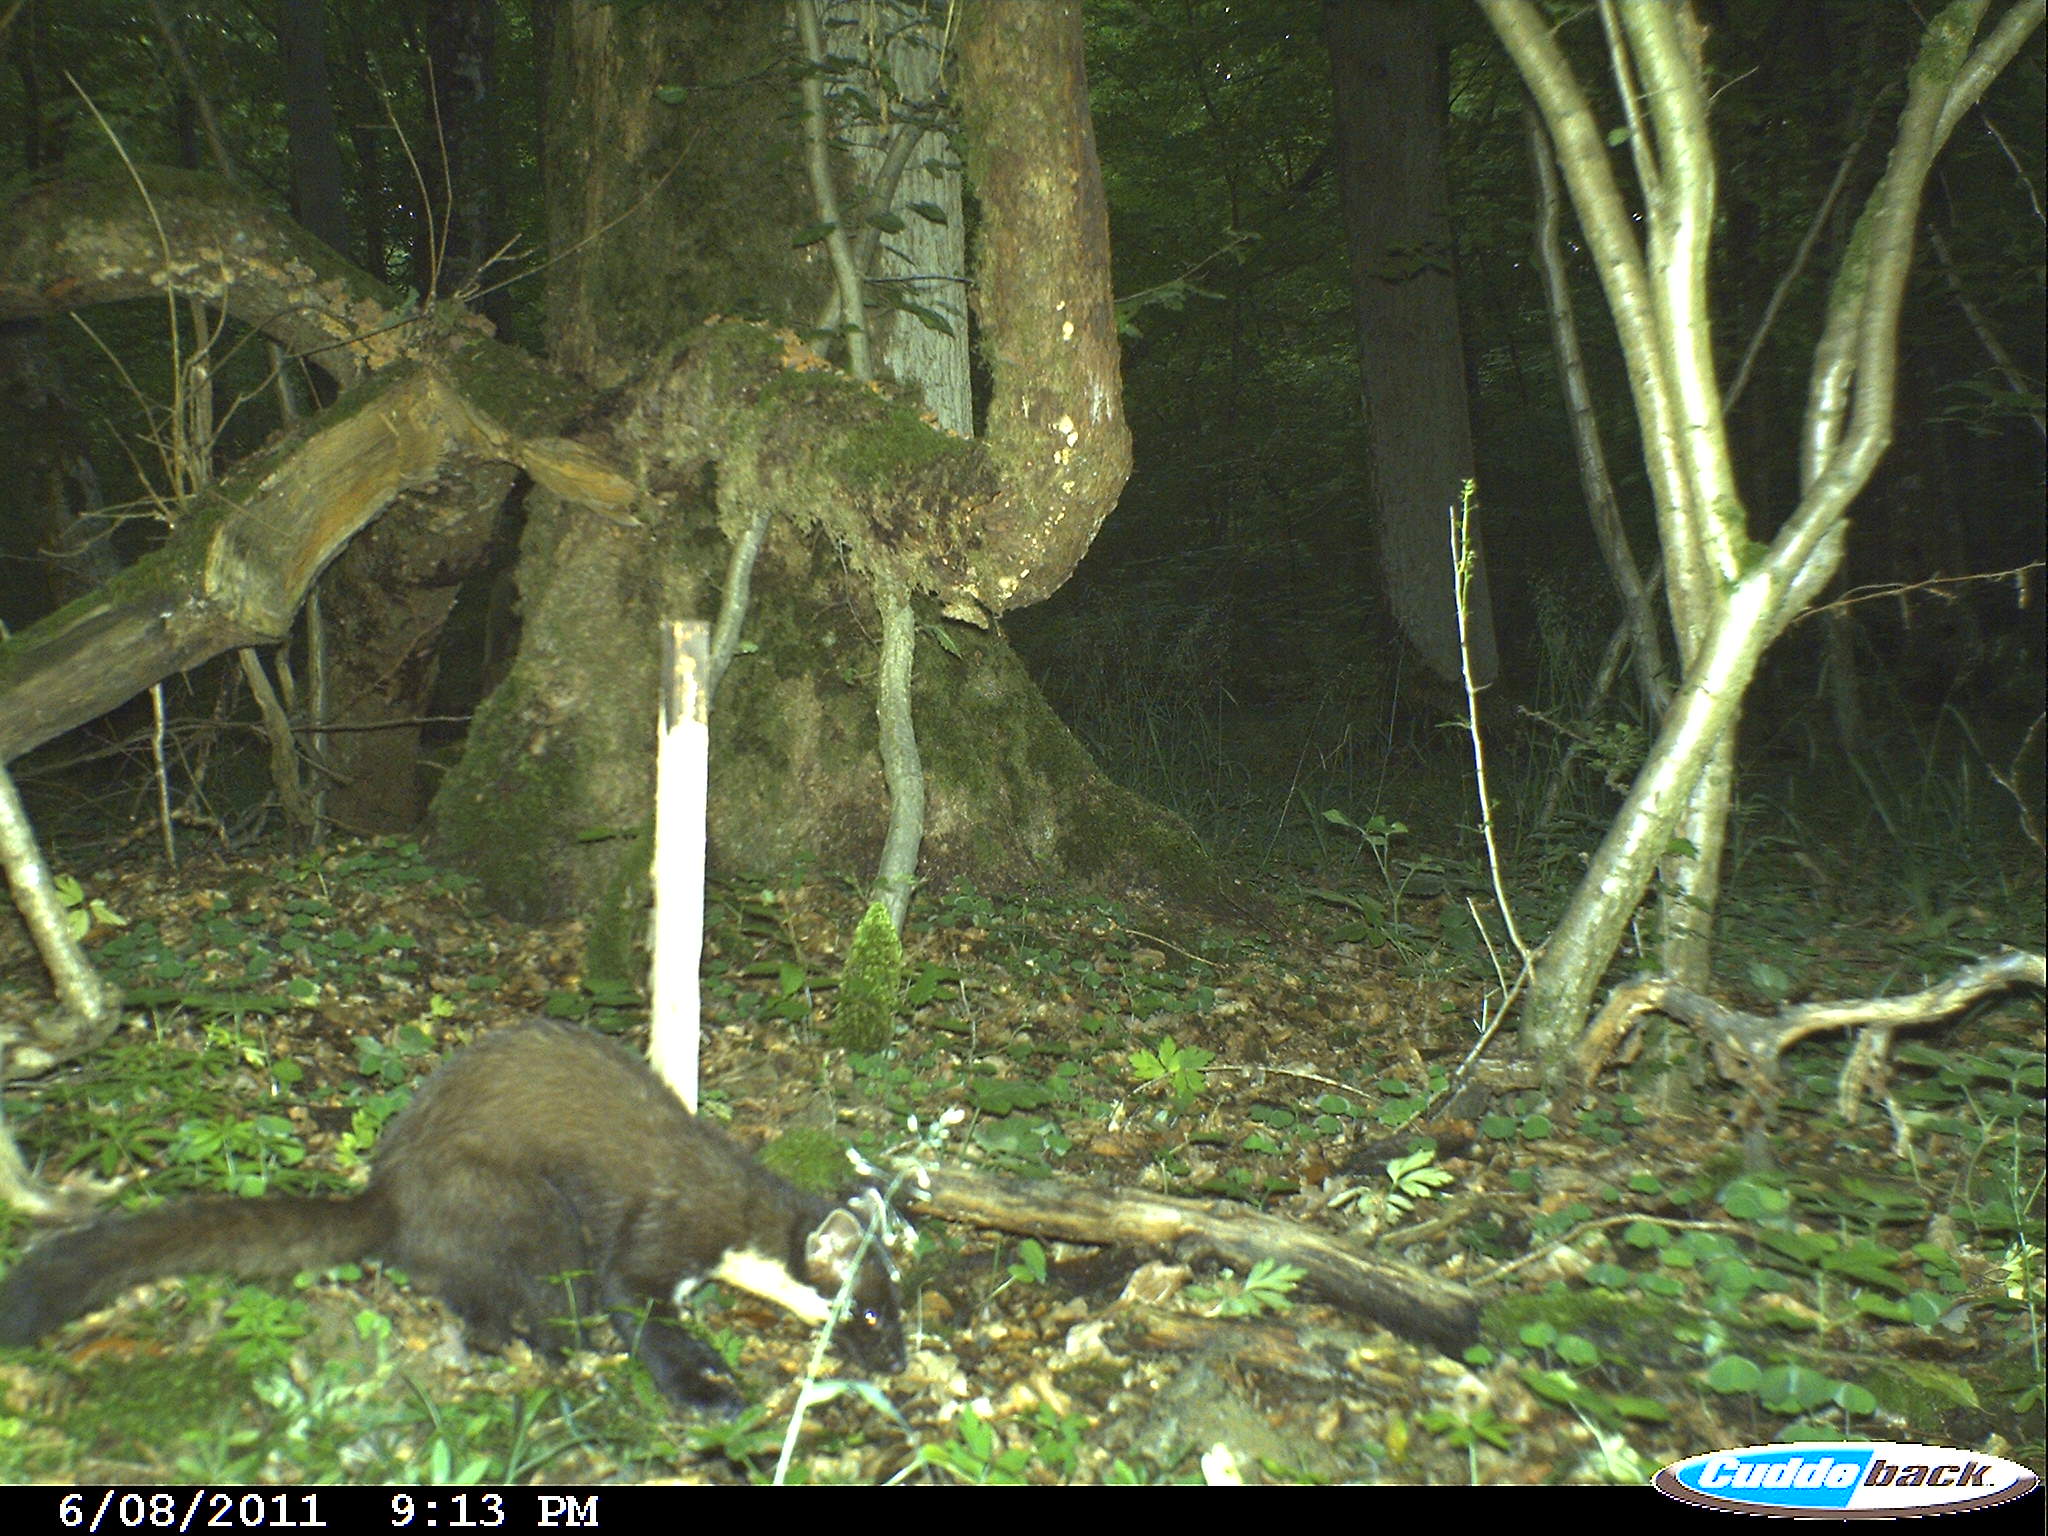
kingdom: Animalia
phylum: Chordata
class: Mammalia
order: Carnivora
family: Mustelidae
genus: Martes
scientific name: Martes martes
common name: European pine marten
